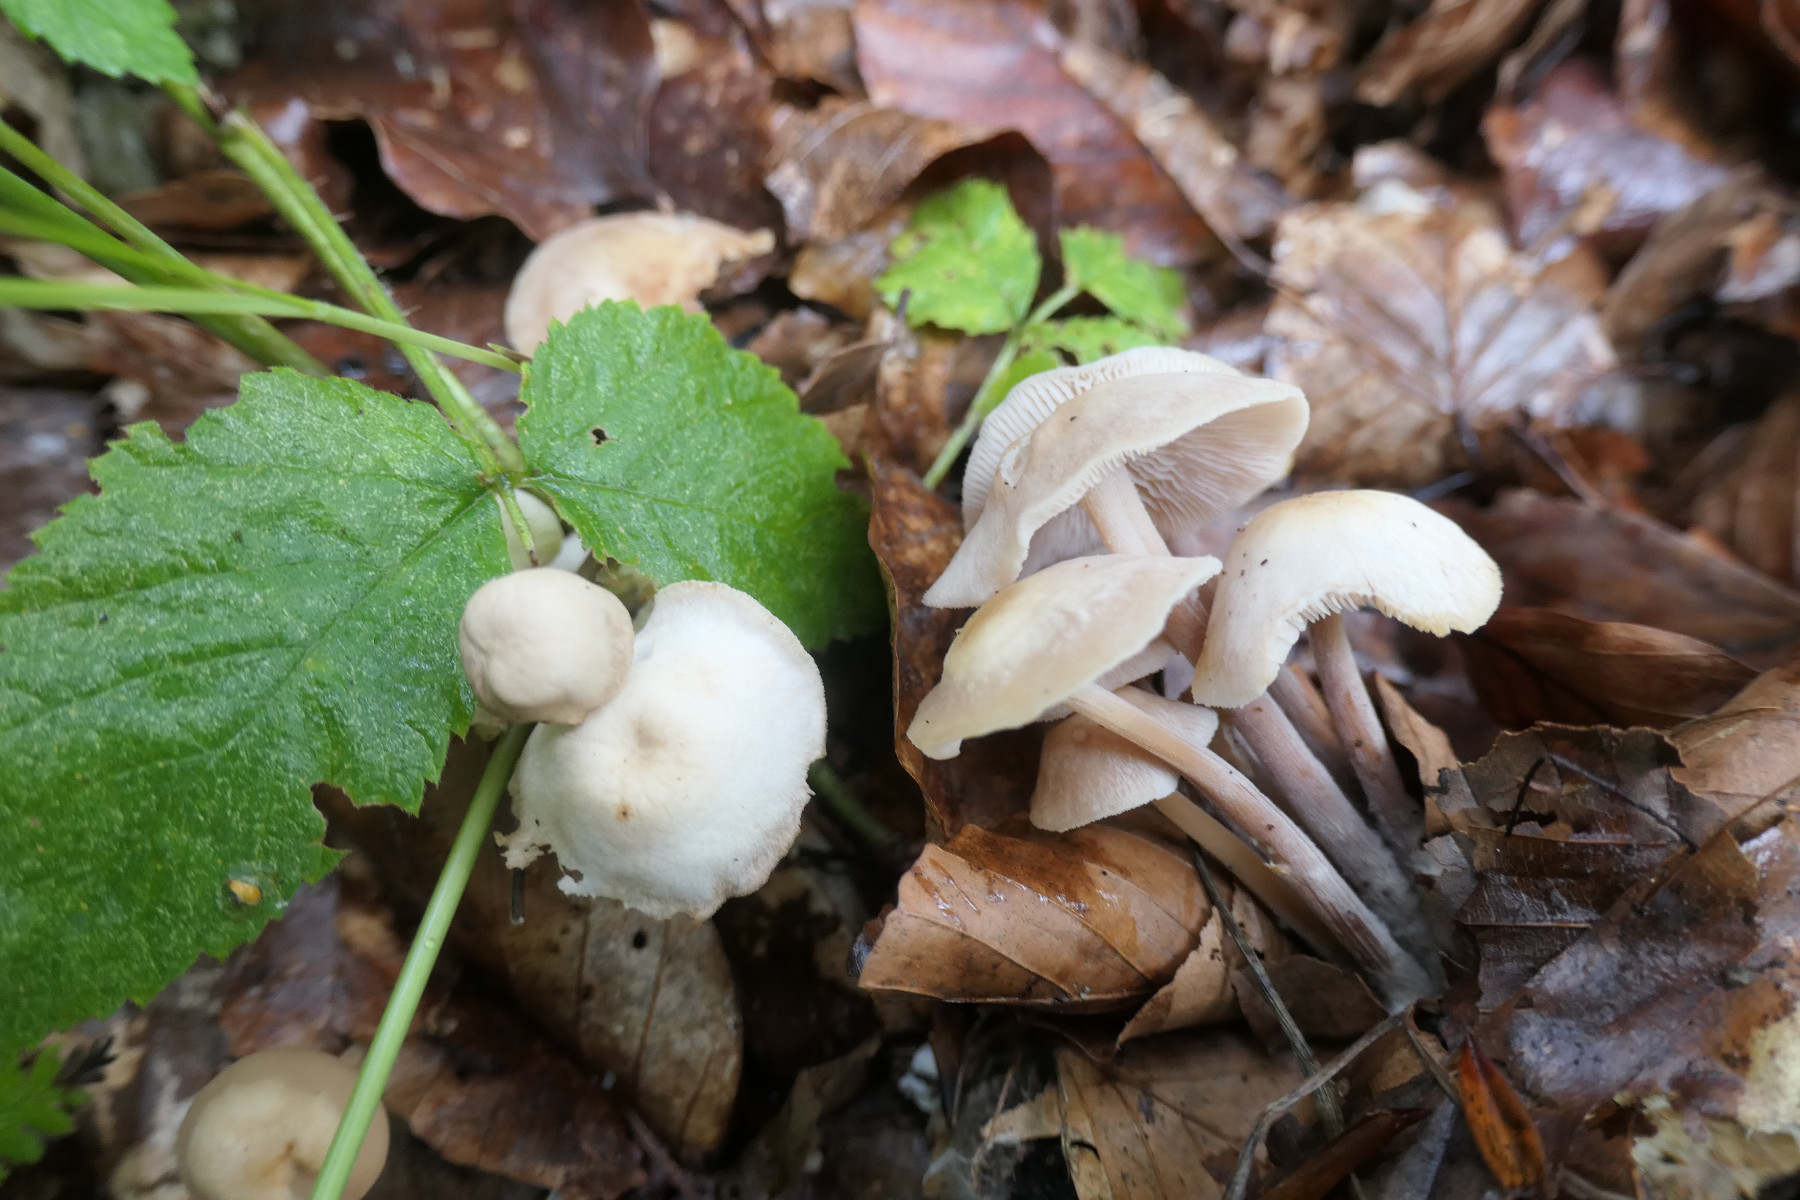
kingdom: Fungi
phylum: Basidiomycota
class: Agaricomycetes
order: Agaricales
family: Omphalotaceae
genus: Collybiopsis
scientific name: Collybiopsis confluens
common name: knippe-fladhat
